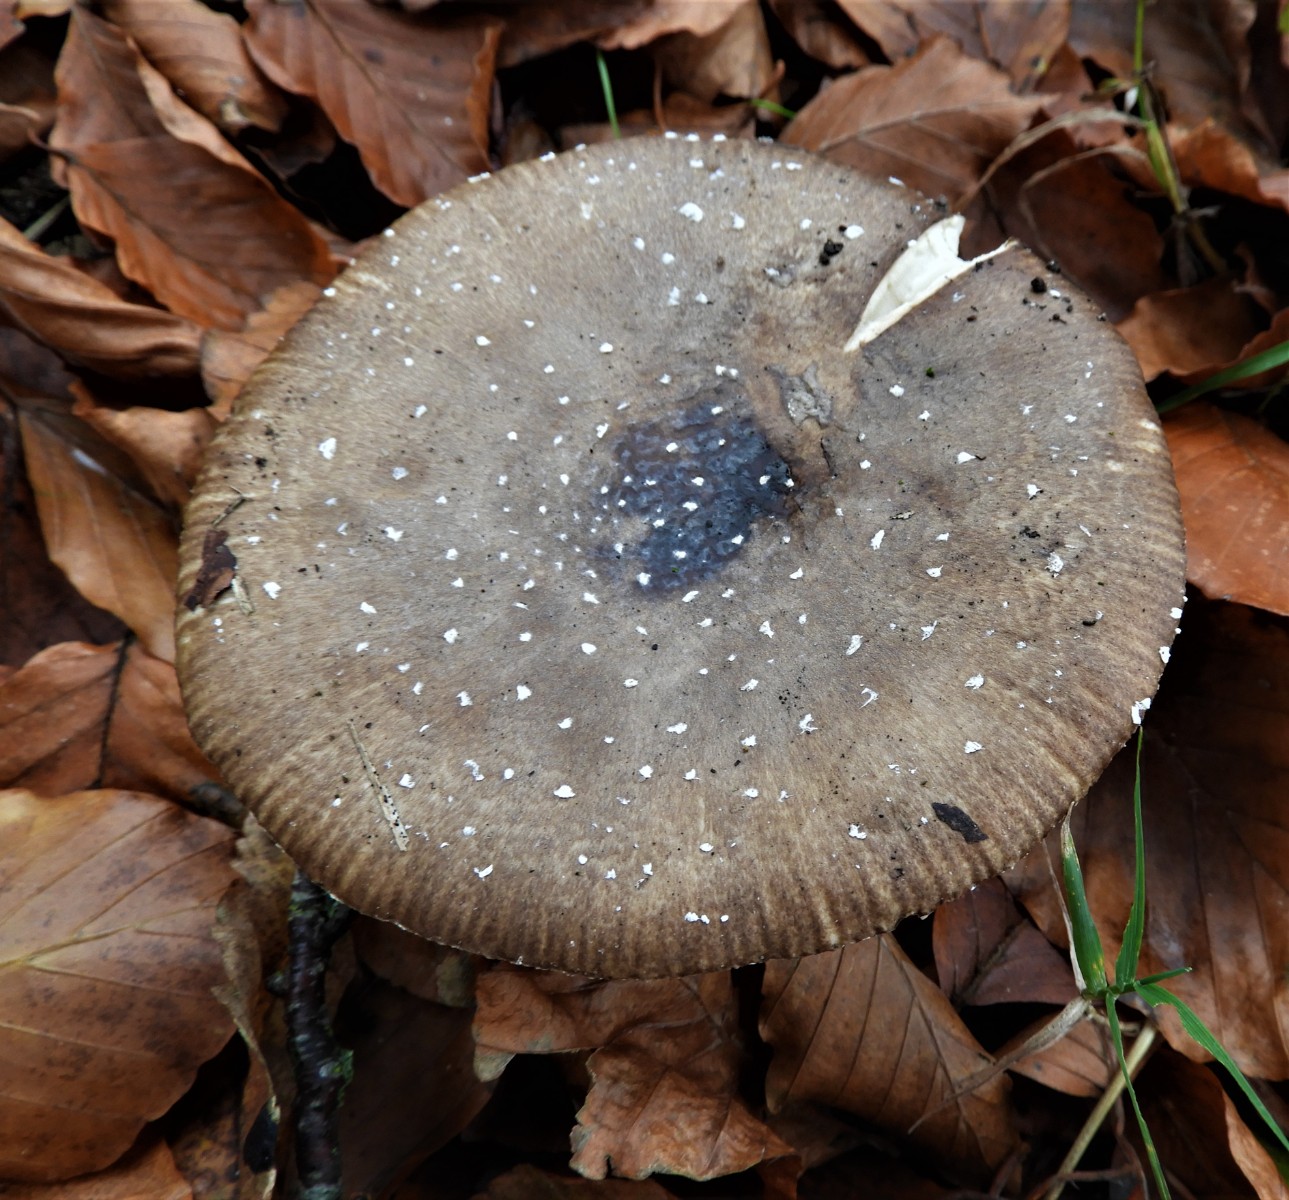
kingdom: Fungi
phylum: Basidiomycota
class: Agaricomycetes
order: Agaricales
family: Amanitaceae
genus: Amanita
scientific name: Amanita pantherina
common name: panter-fluesvamp
